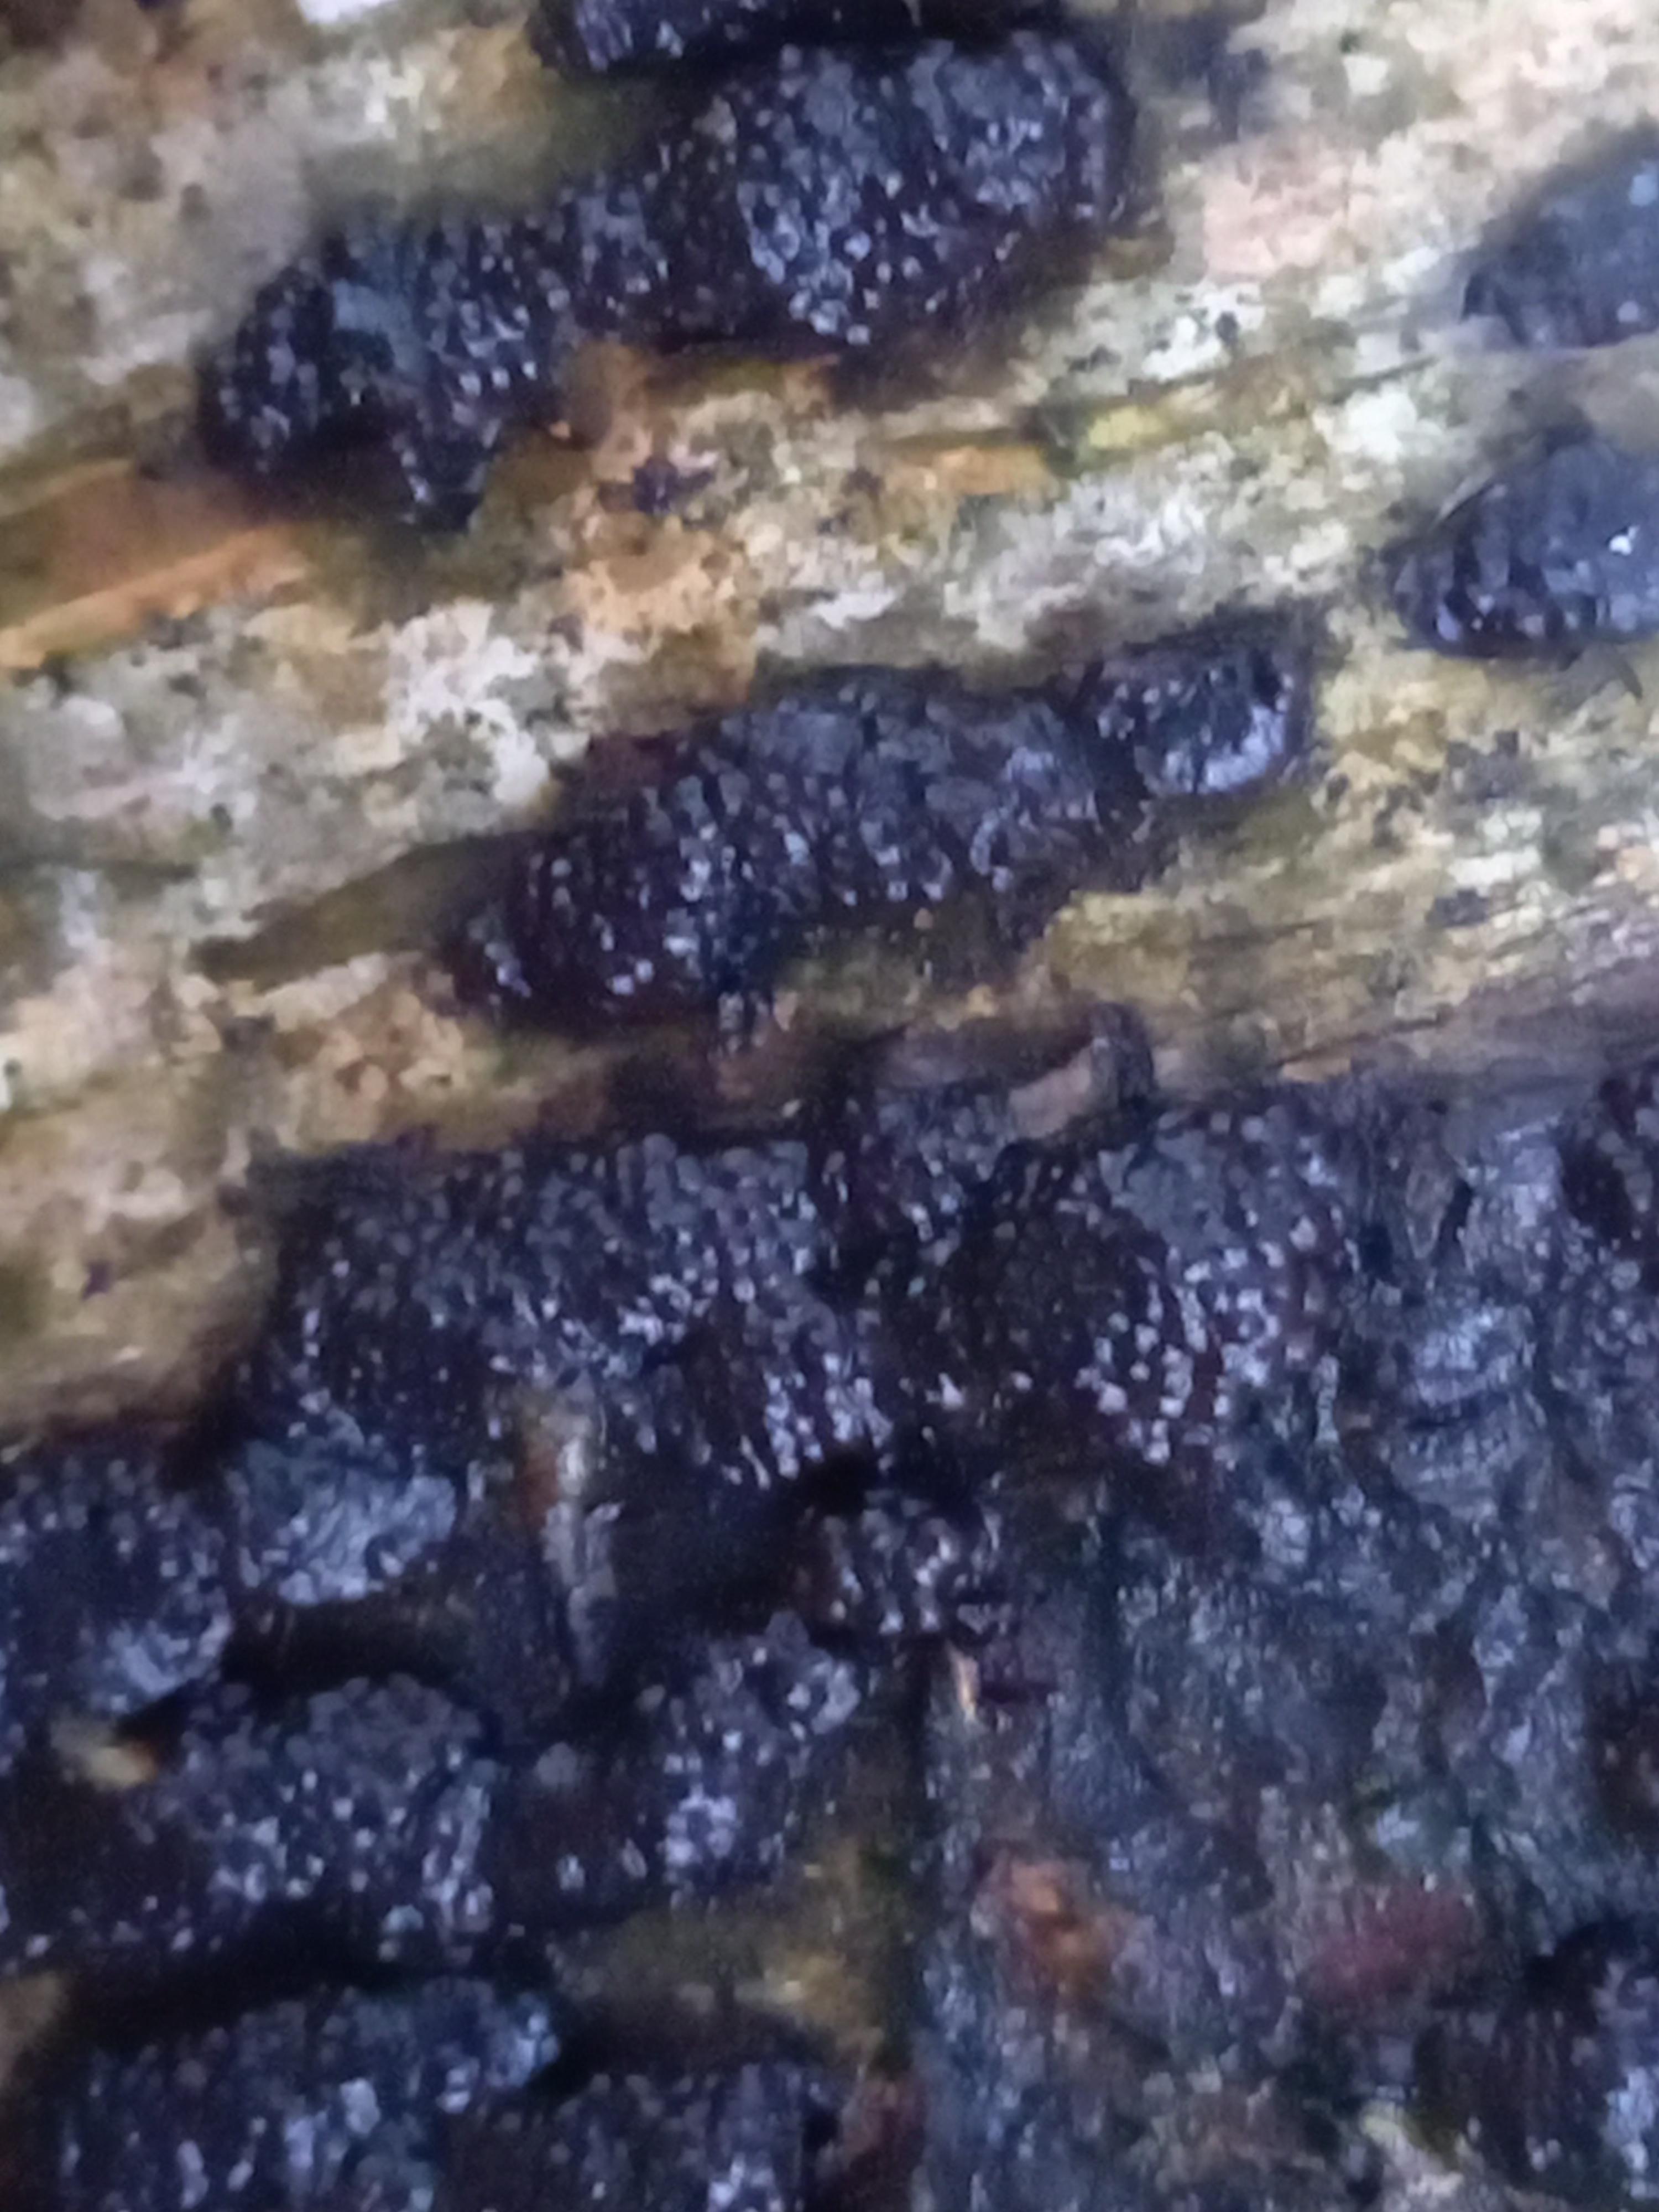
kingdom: Fungi
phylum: Ascomycota
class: Sordariomycetes
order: Xylariales
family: Hypoxylaceae
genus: Jackrogersella
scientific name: Jackrogersella multiformis
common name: foranderlig kulbær
